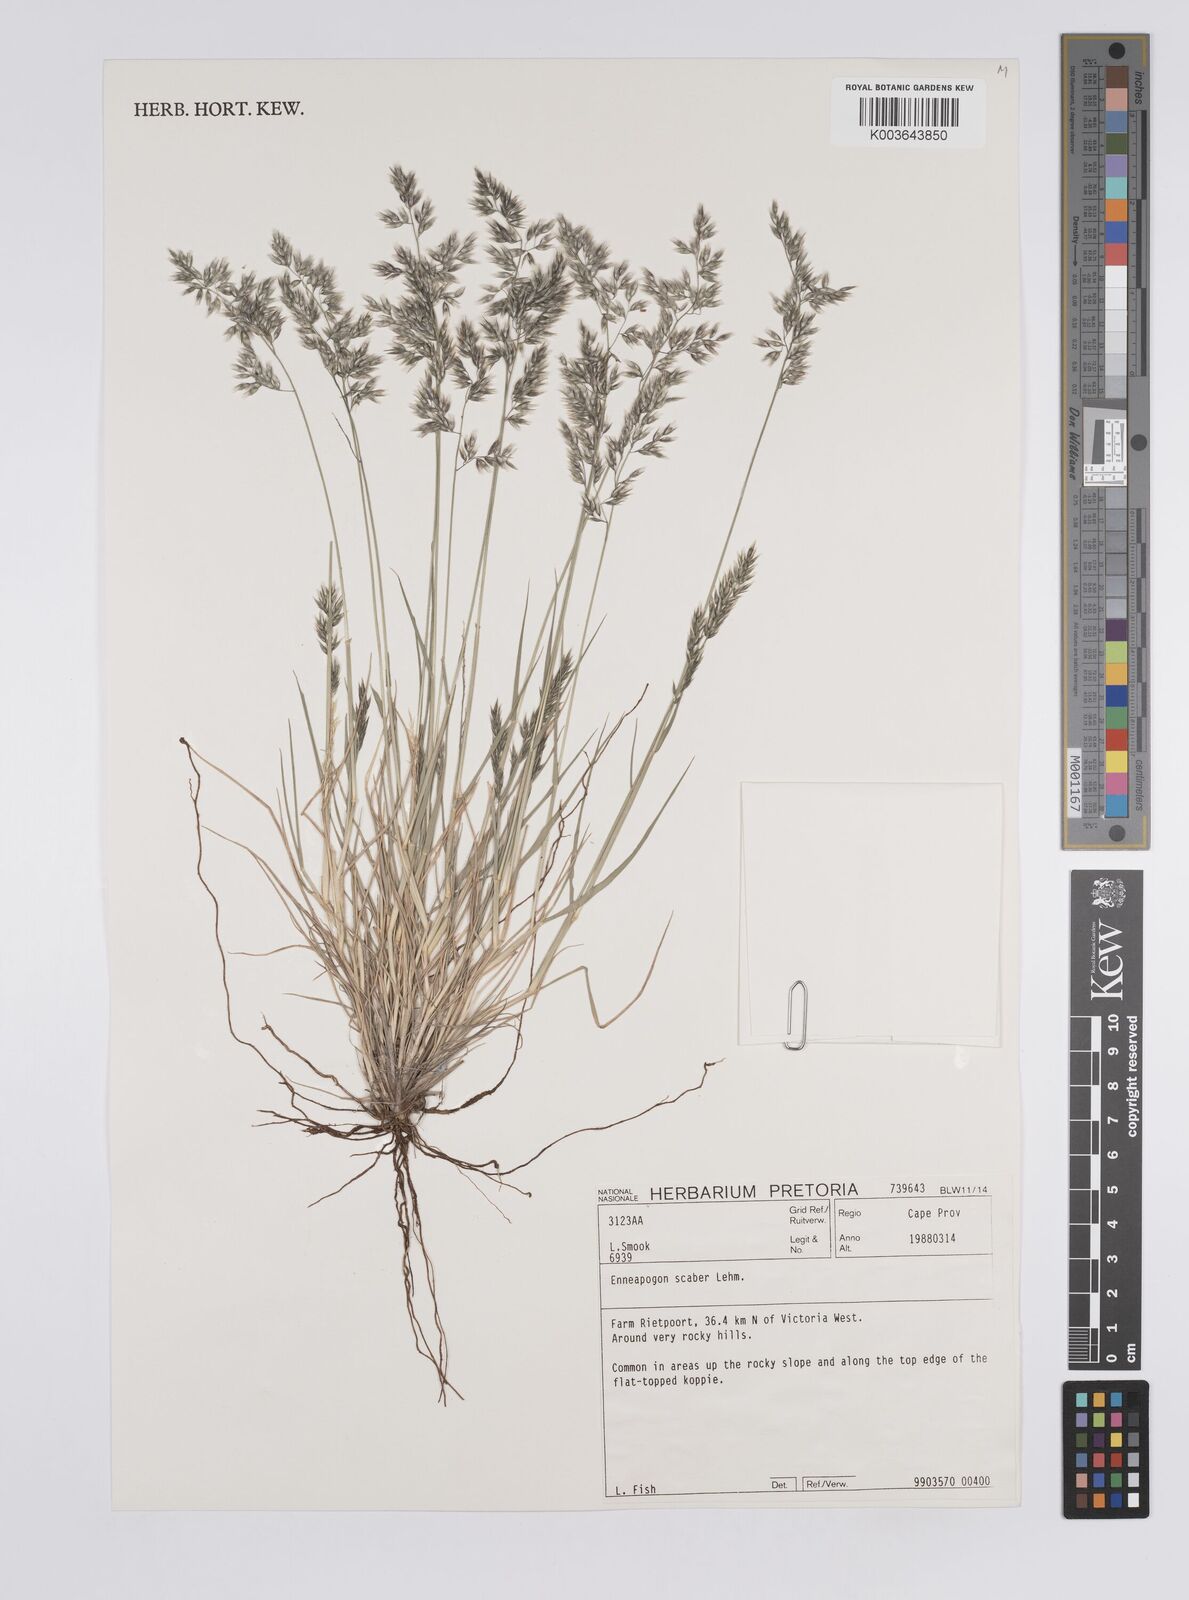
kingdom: Plantae
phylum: Tracheophyta
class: Liliopsida
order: Poales
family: Poaceae
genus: Enneapogon
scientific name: Enneapogon scaber
